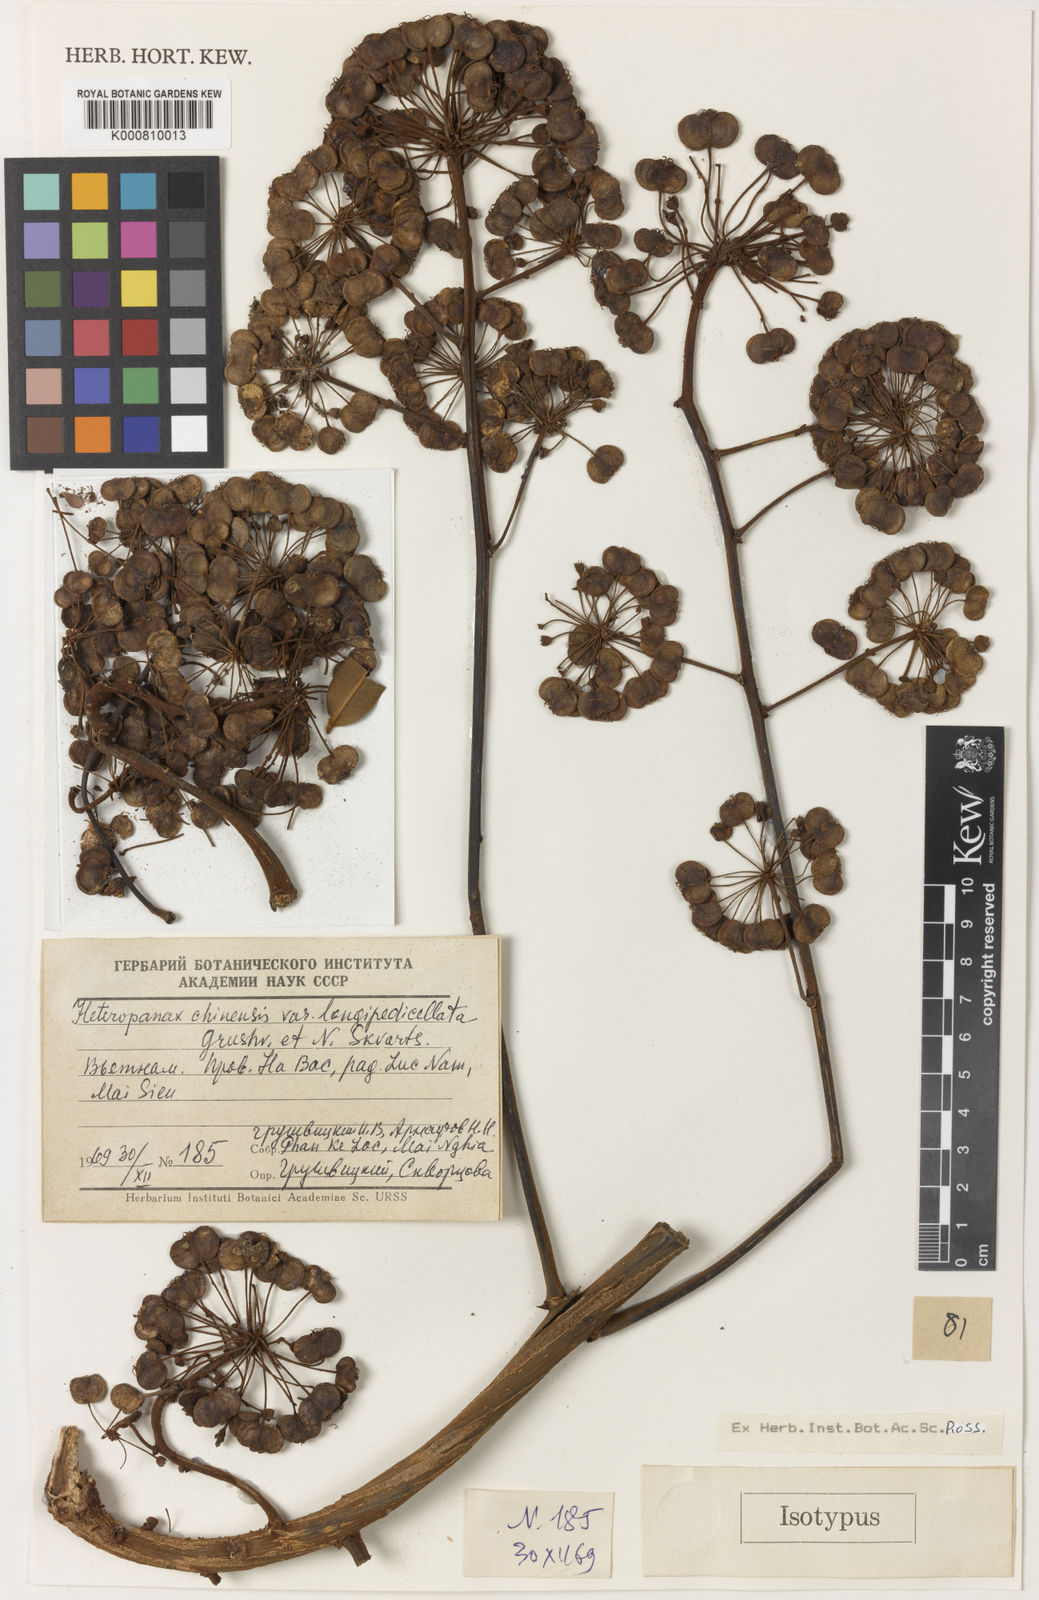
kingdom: Plantae
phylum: Tracheophyta
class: Magnoliopsida
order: Apiales
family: Araliaceae
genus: Heteropanax
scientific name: Heteropanax chinensis
